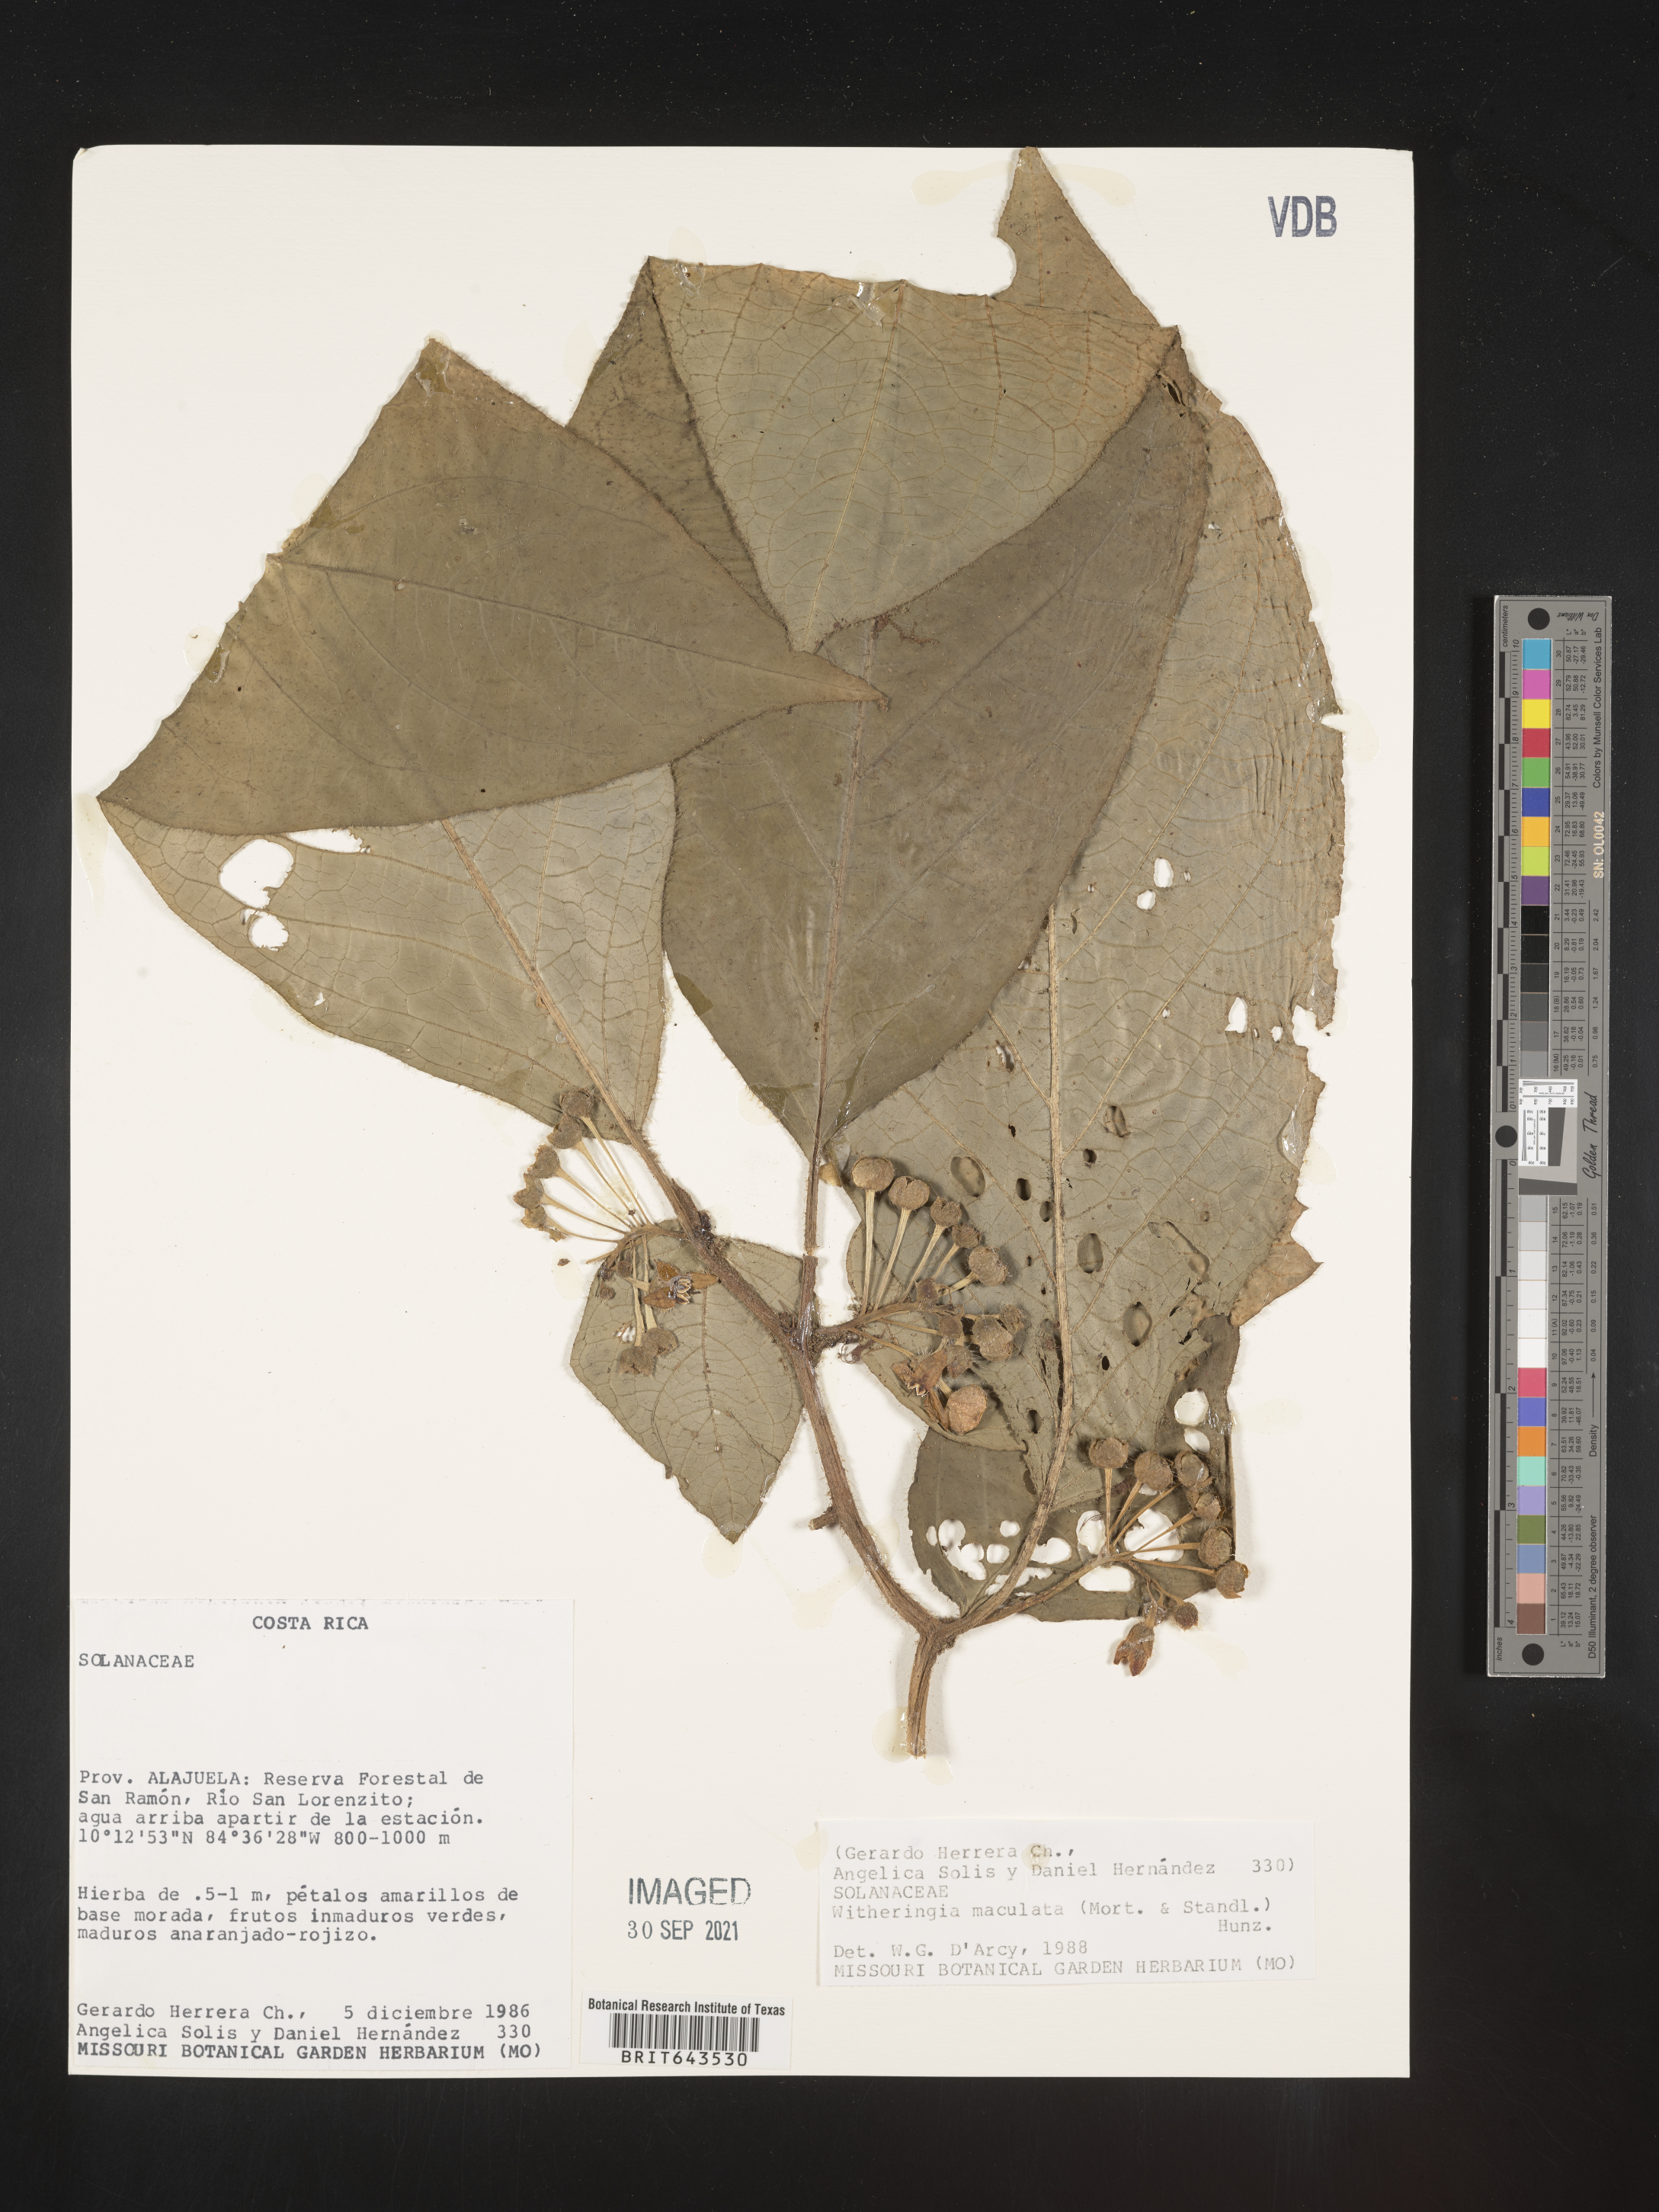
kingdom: Plantae
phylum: Tracheophyta
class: Magnoliopsida
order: Solanales
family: Solanaceae
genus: Witheringia
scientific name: Witheringia
